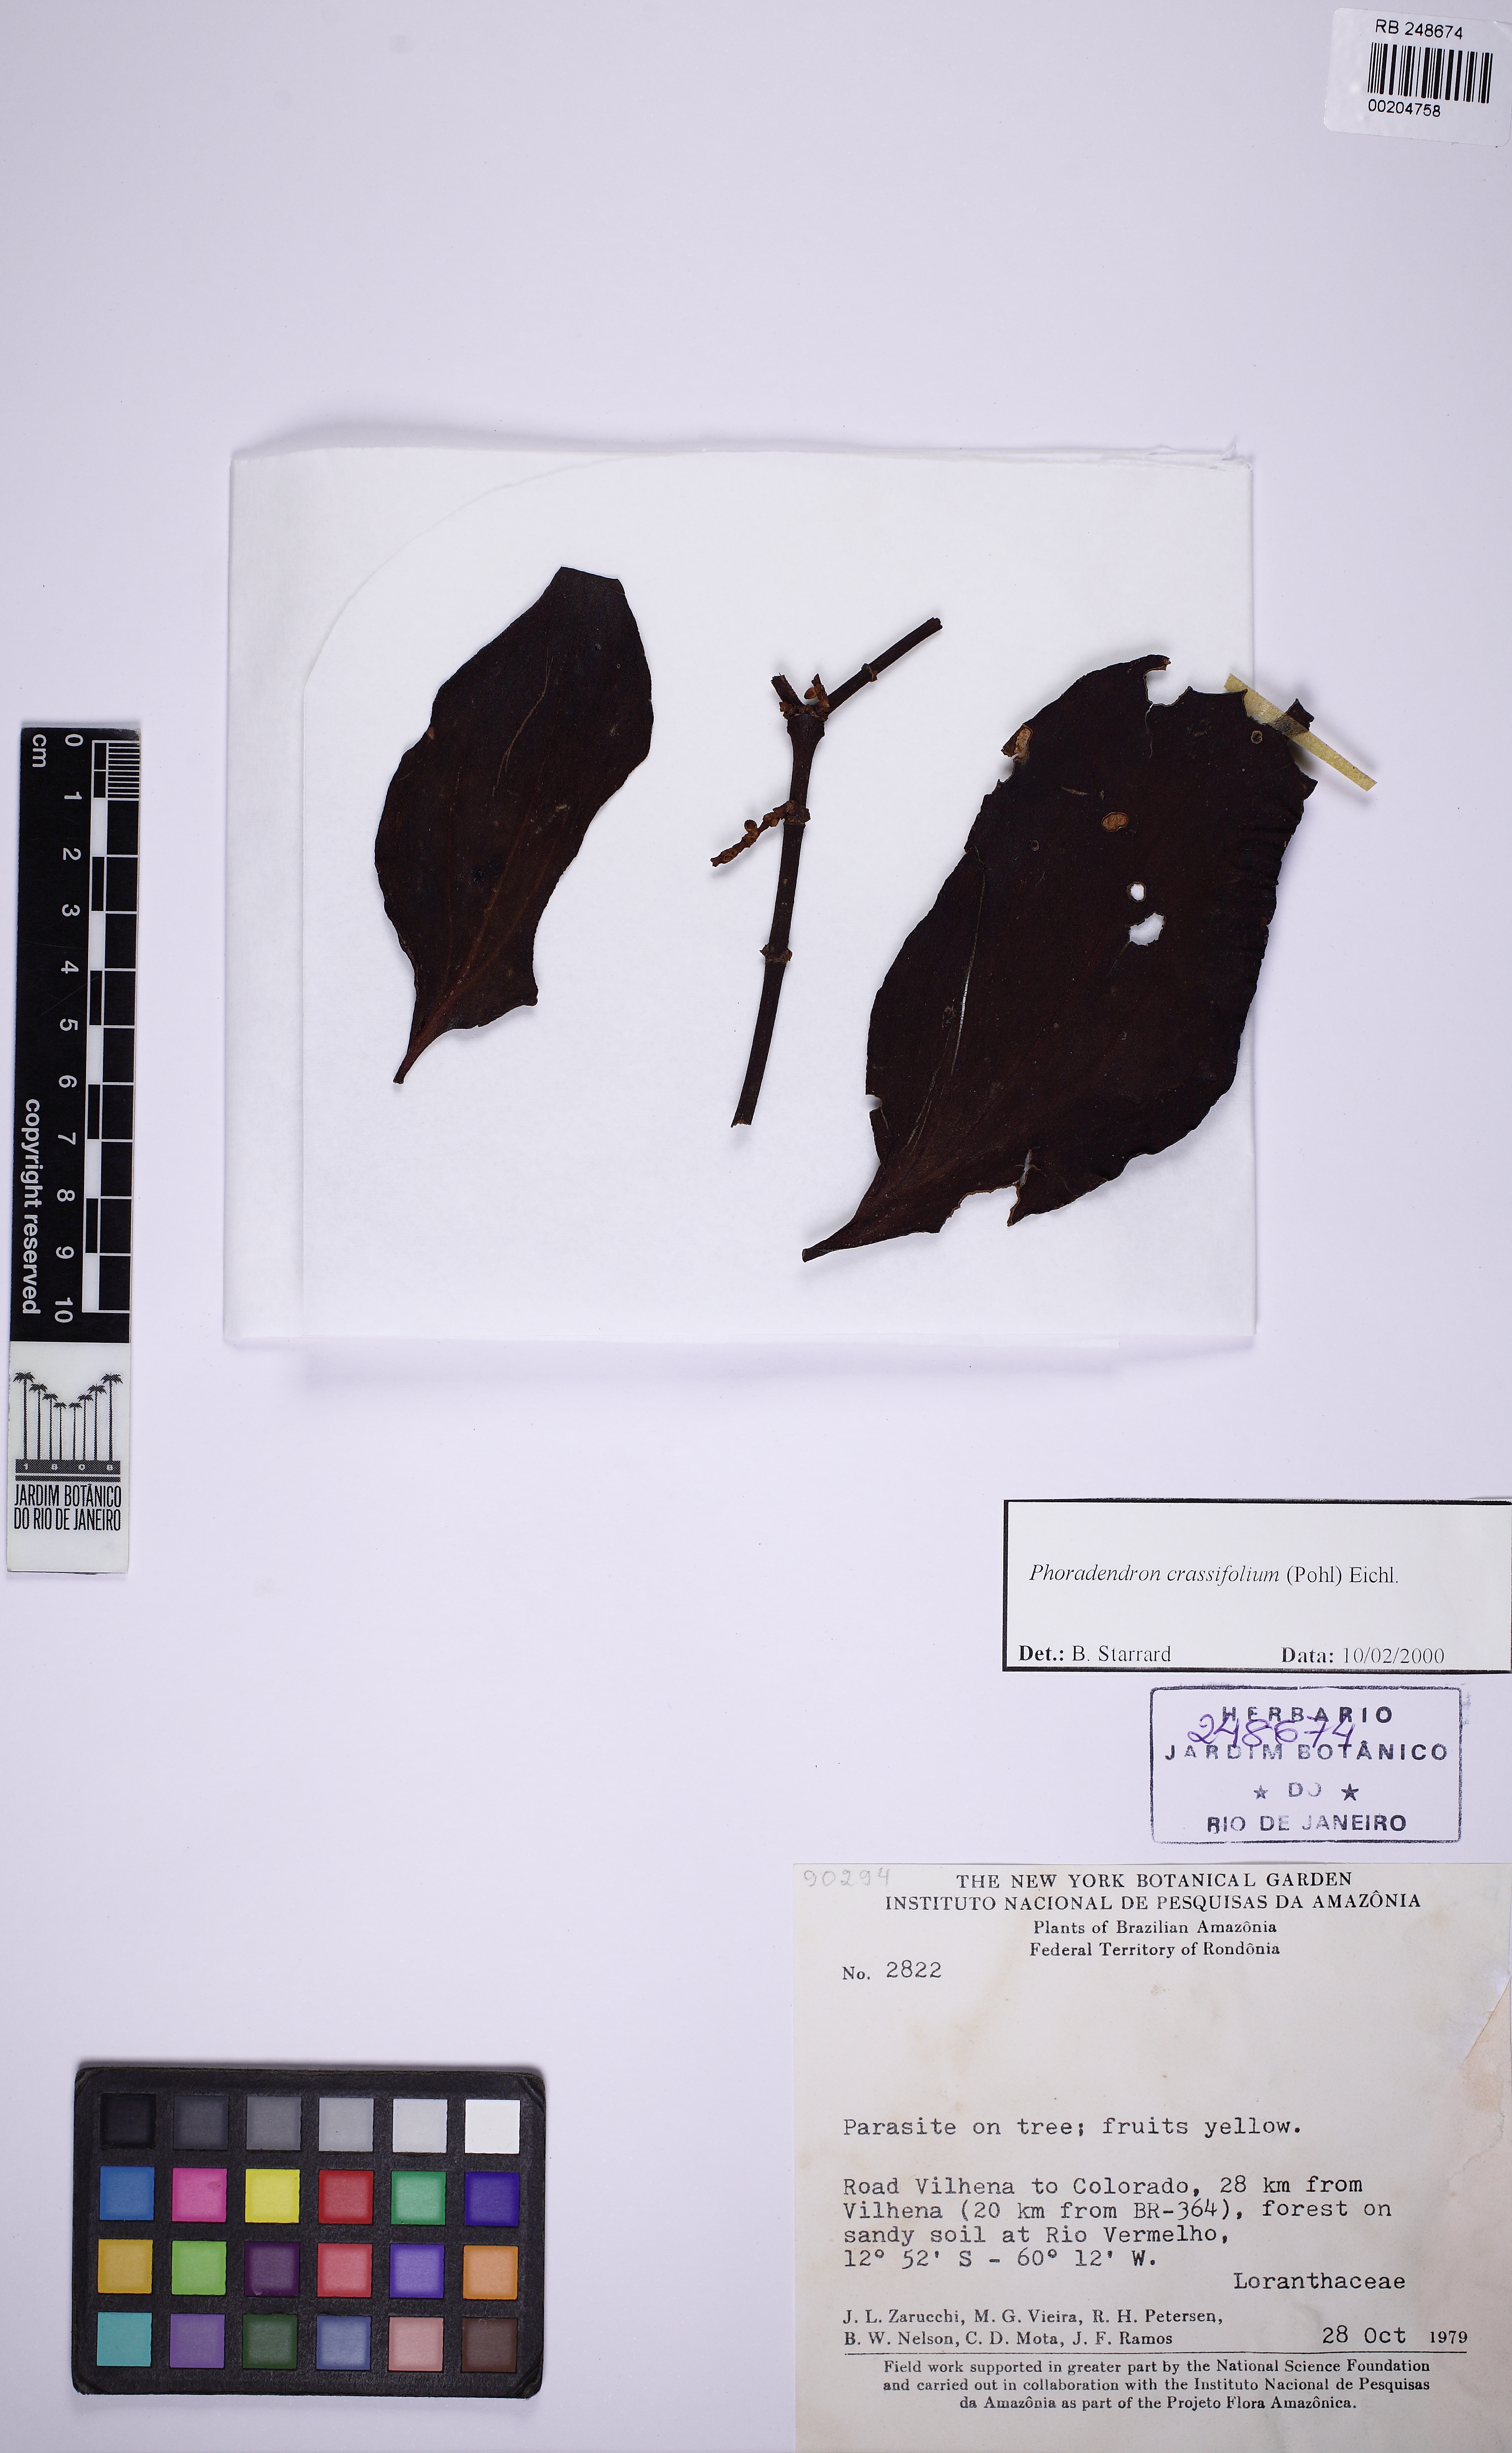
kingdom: Plantae
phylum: Tracheophyta
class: Magnoliopsida
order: Santalales
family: Viscaceae
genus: Phoradendron
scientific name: Phoradendron crassifolium
